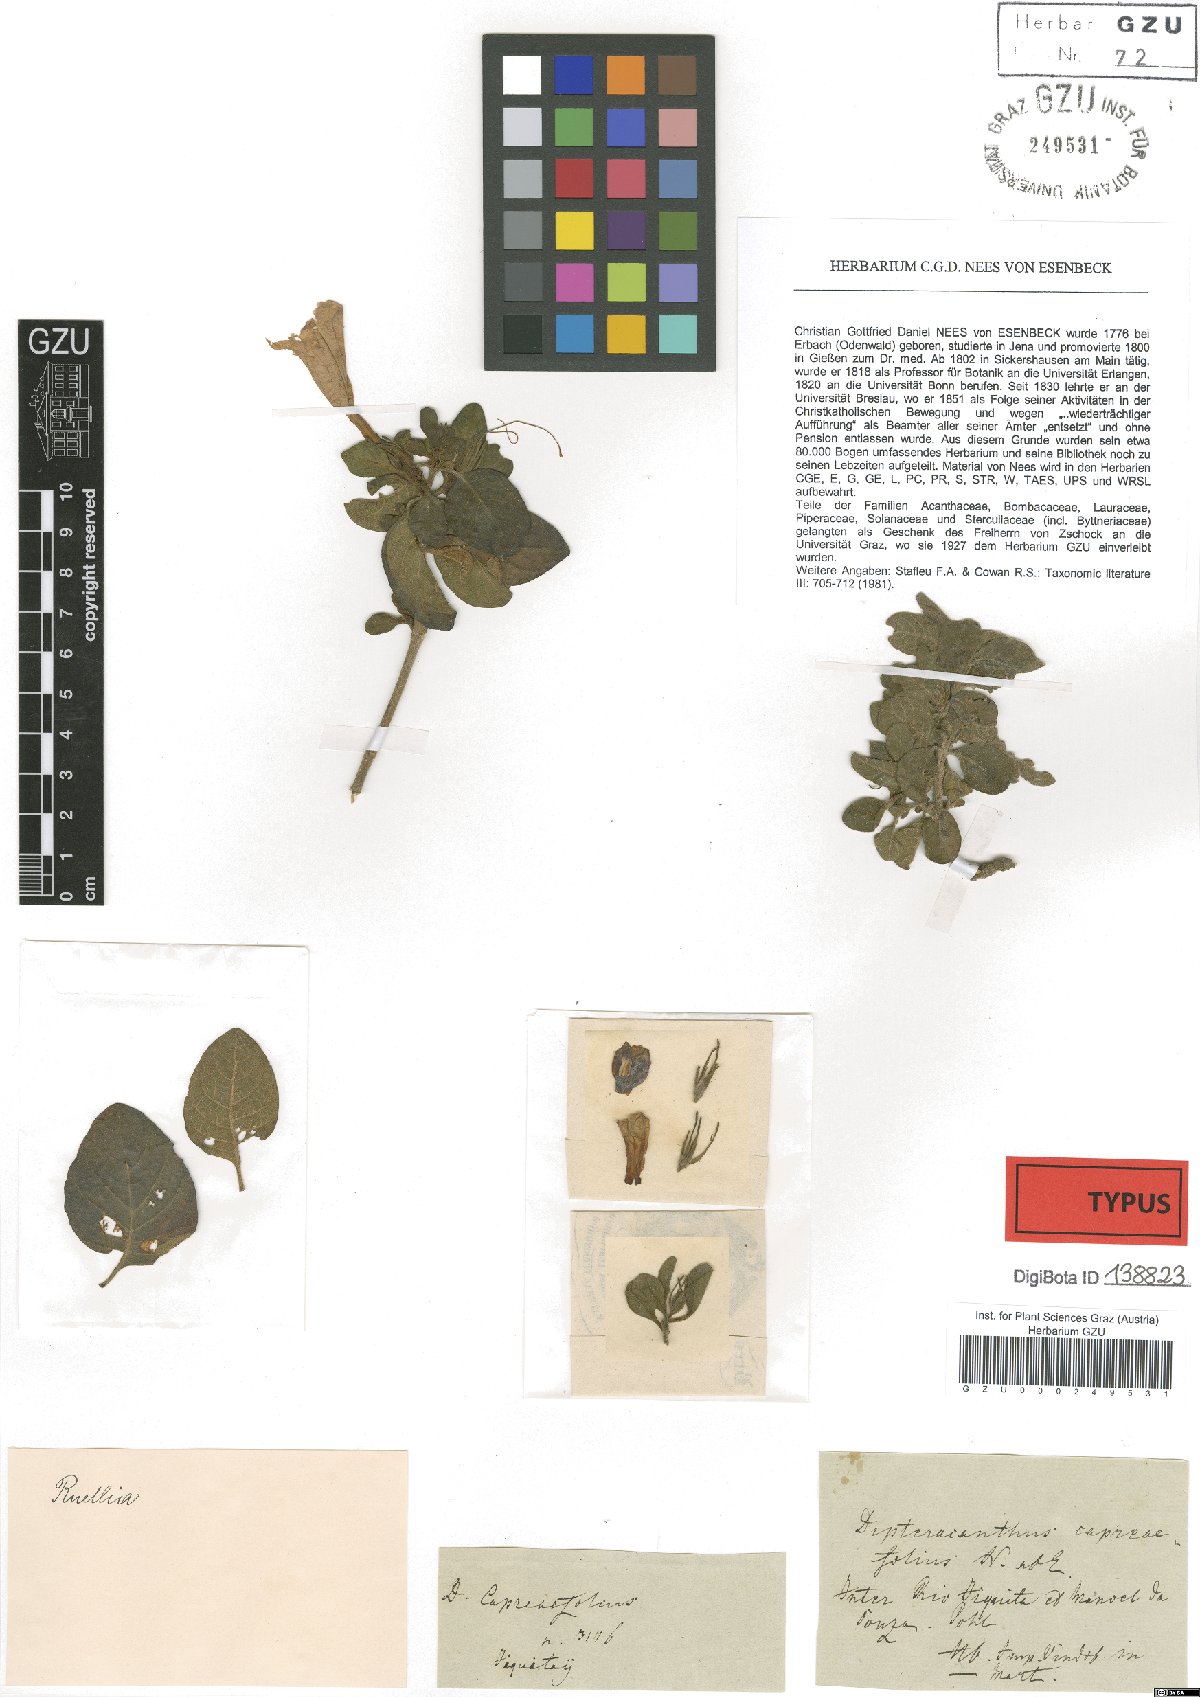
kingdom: Plantae
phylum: Tracheophyta
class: Magnoliopsida
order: Lamiales
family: Acanthaceae
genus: Ruellia
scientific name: Ruellia Dipteracanthus capreaefolius
